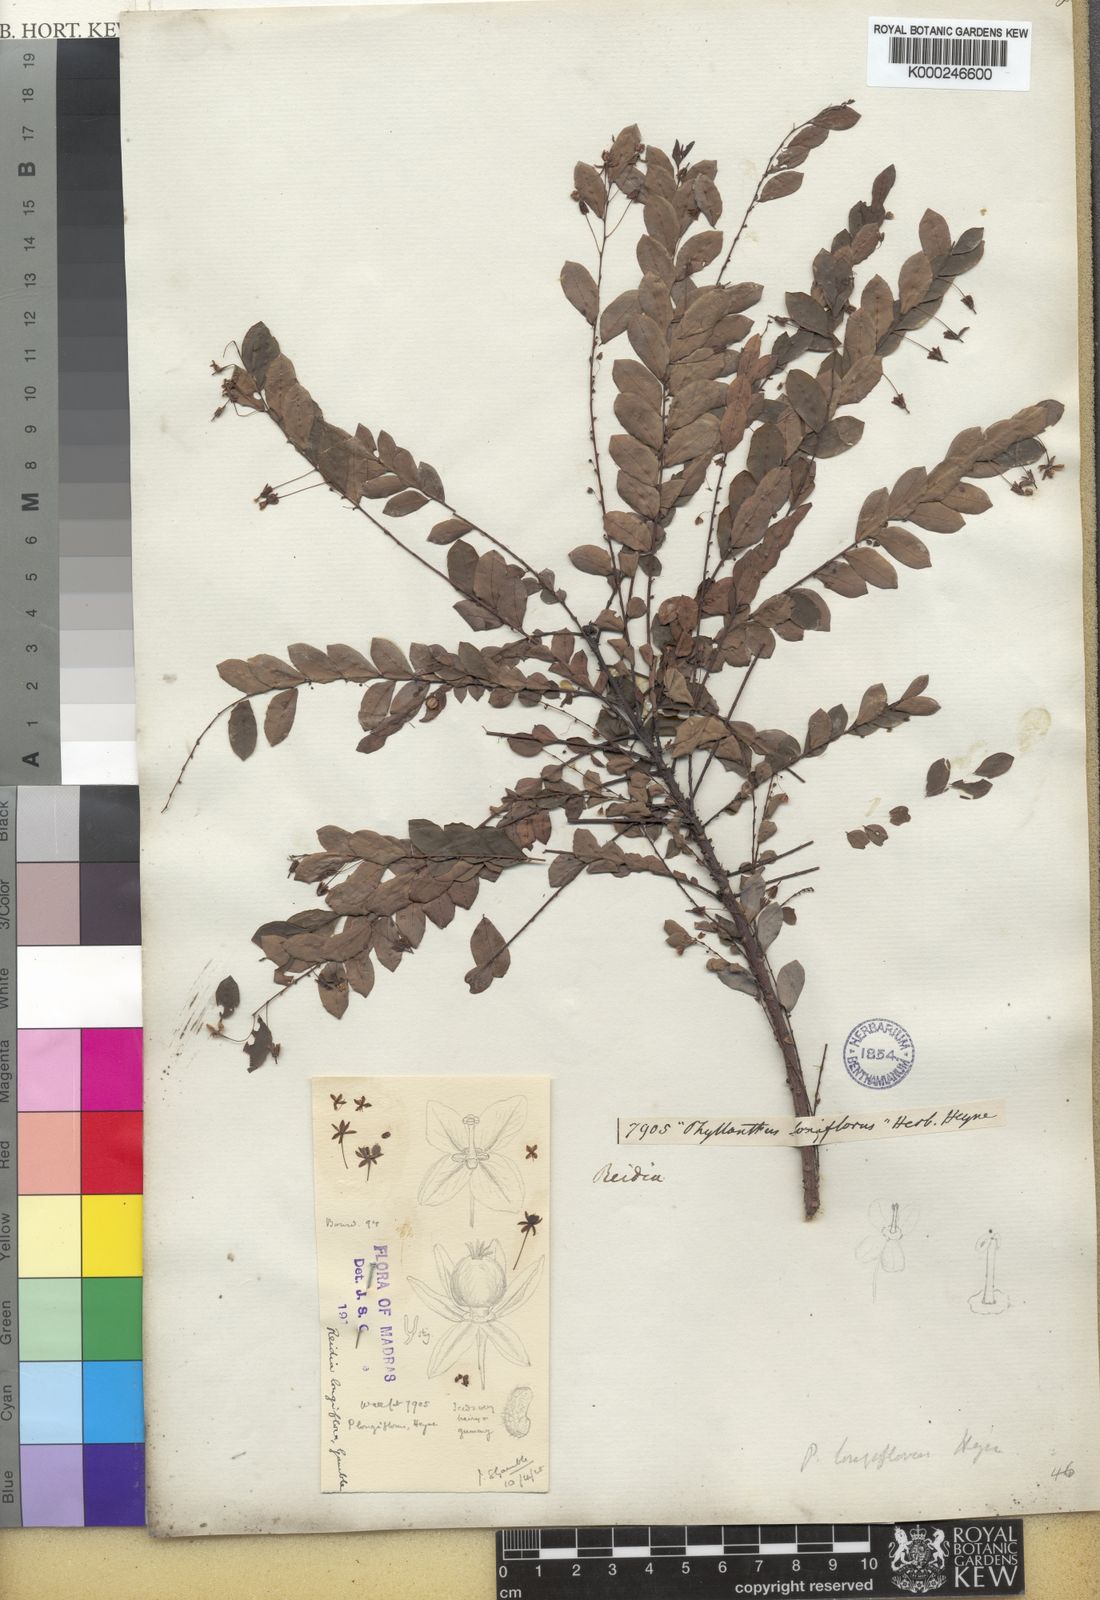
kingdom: Plantae
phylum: Tracheophyta
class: Magnoliopsida
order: Malpighiales
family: Phyllanthaceae
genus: Phyllanthus
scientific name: Phyllanthus
